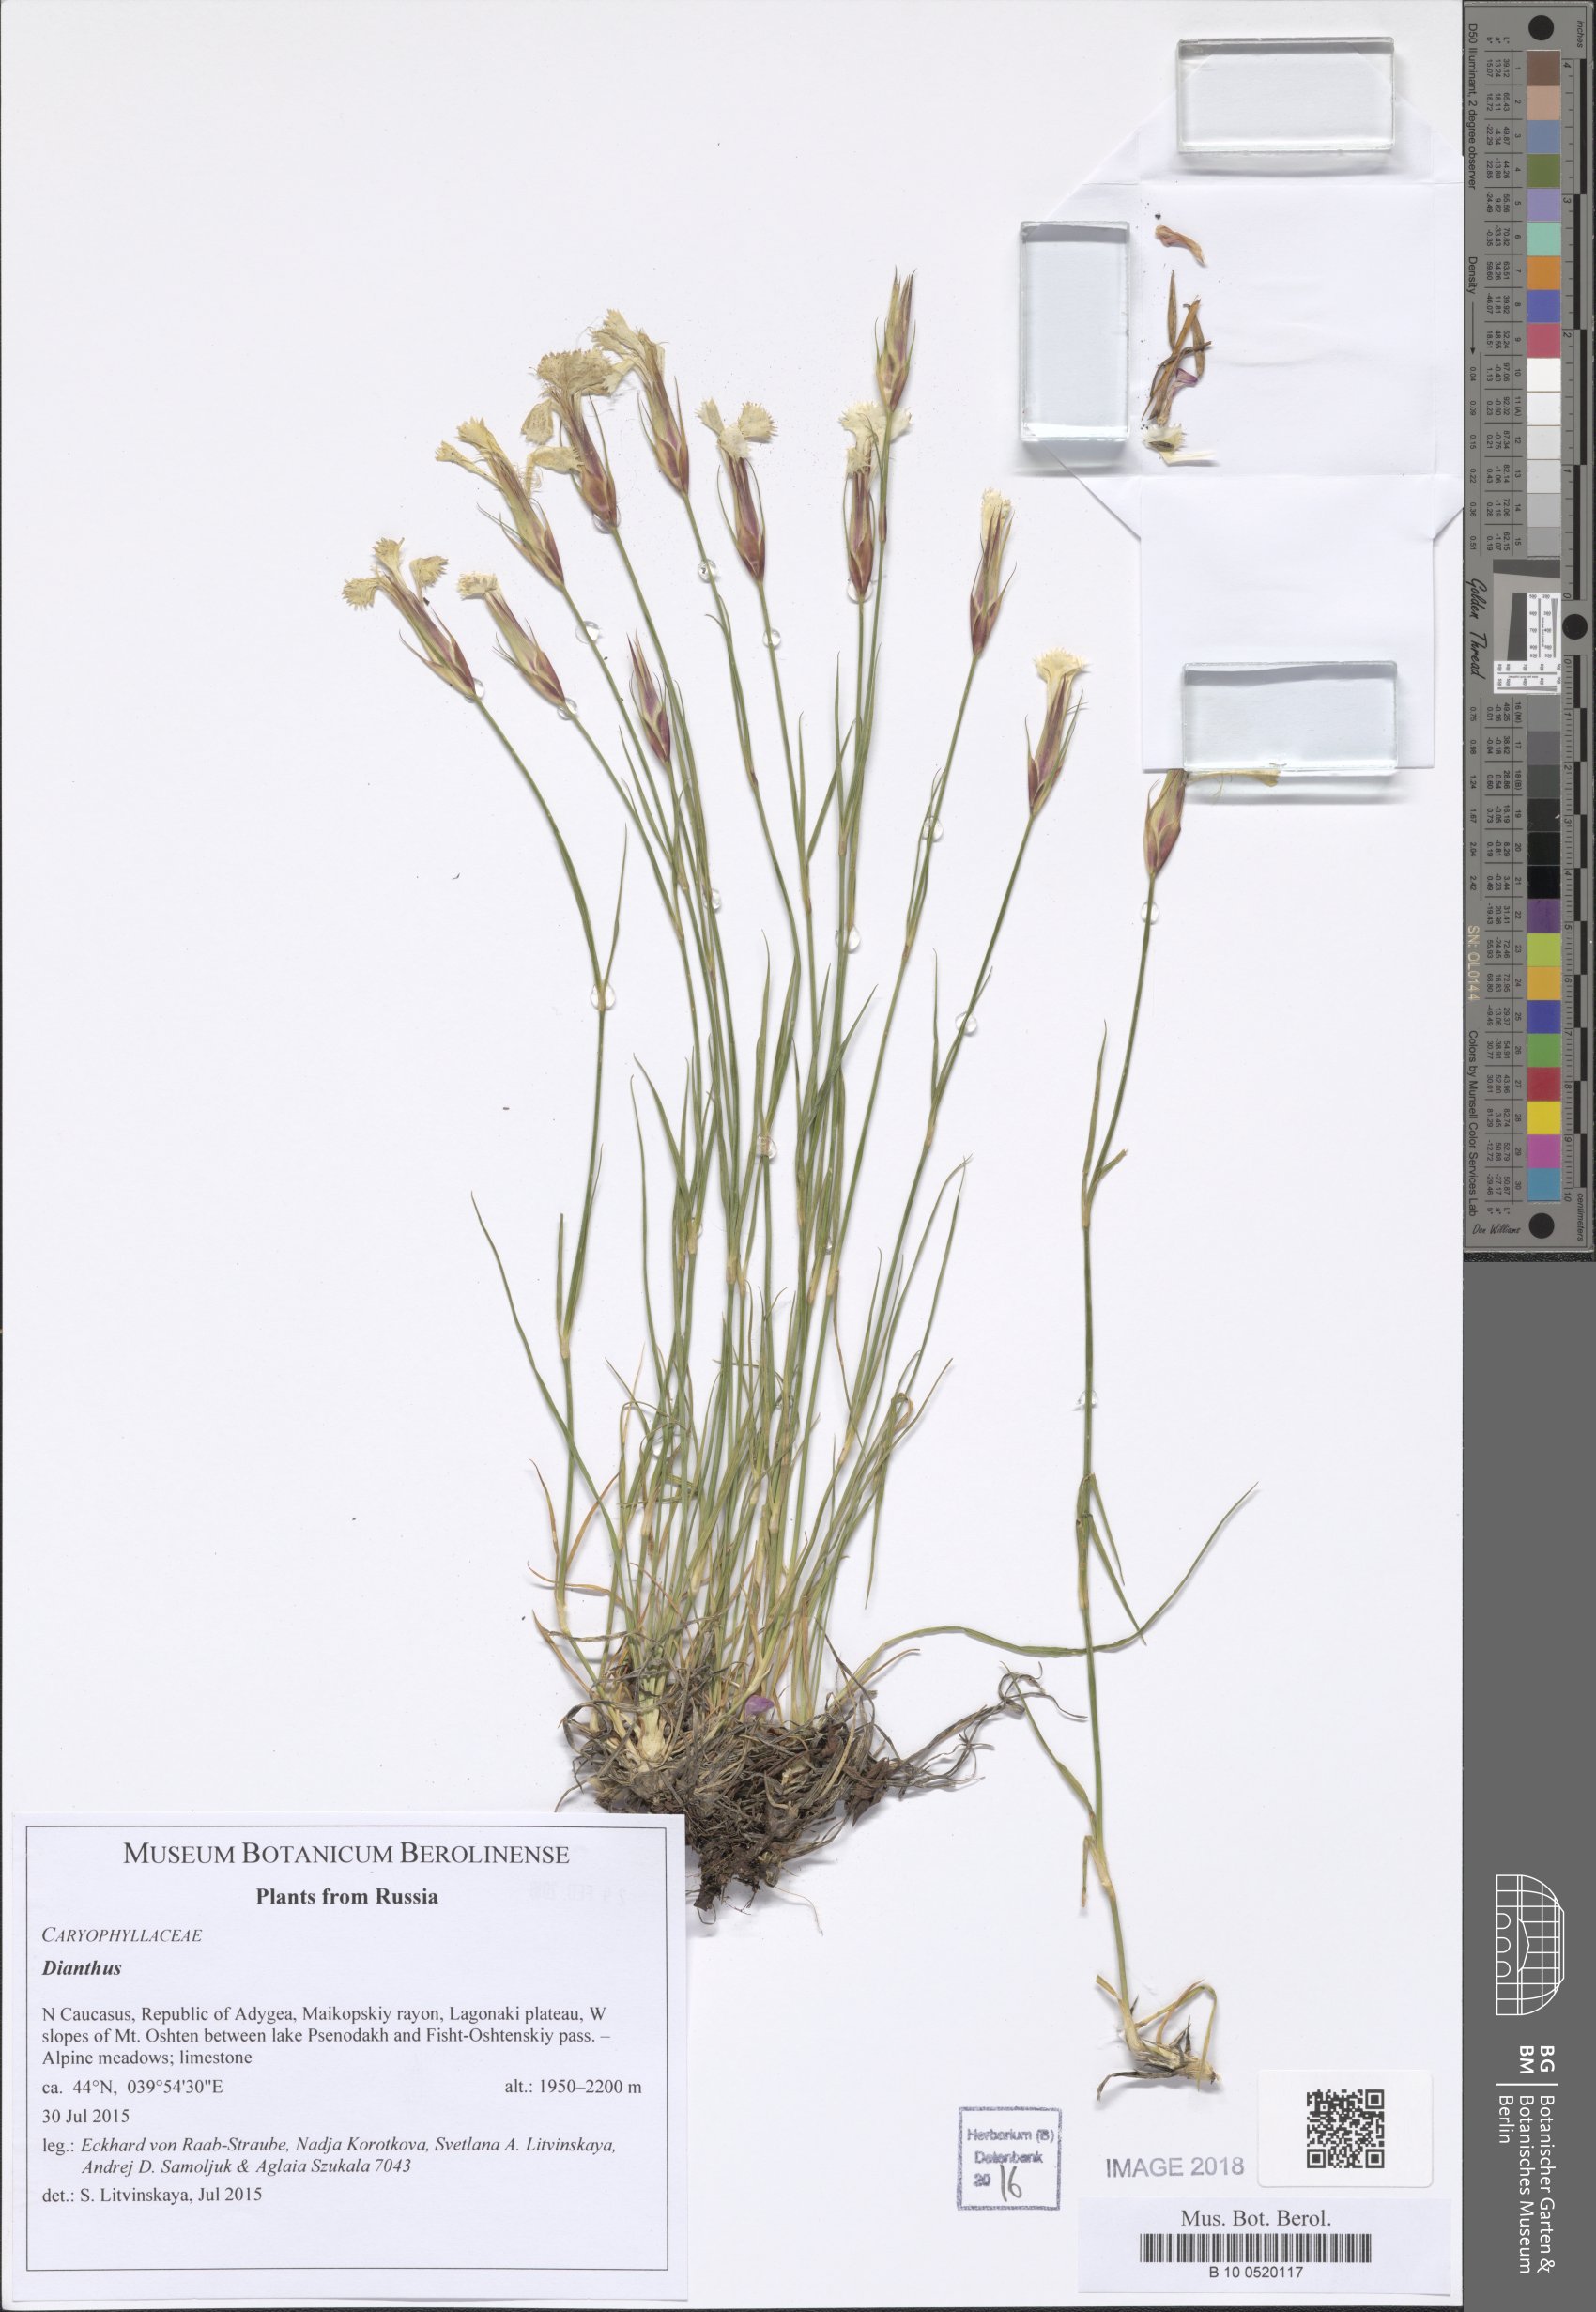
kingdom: Plantae
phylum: Tracheophyta
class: Magnoliopsida
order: Caryophyllales
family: Caryophyllaceae
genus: Dianthus
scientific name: Dianthus
